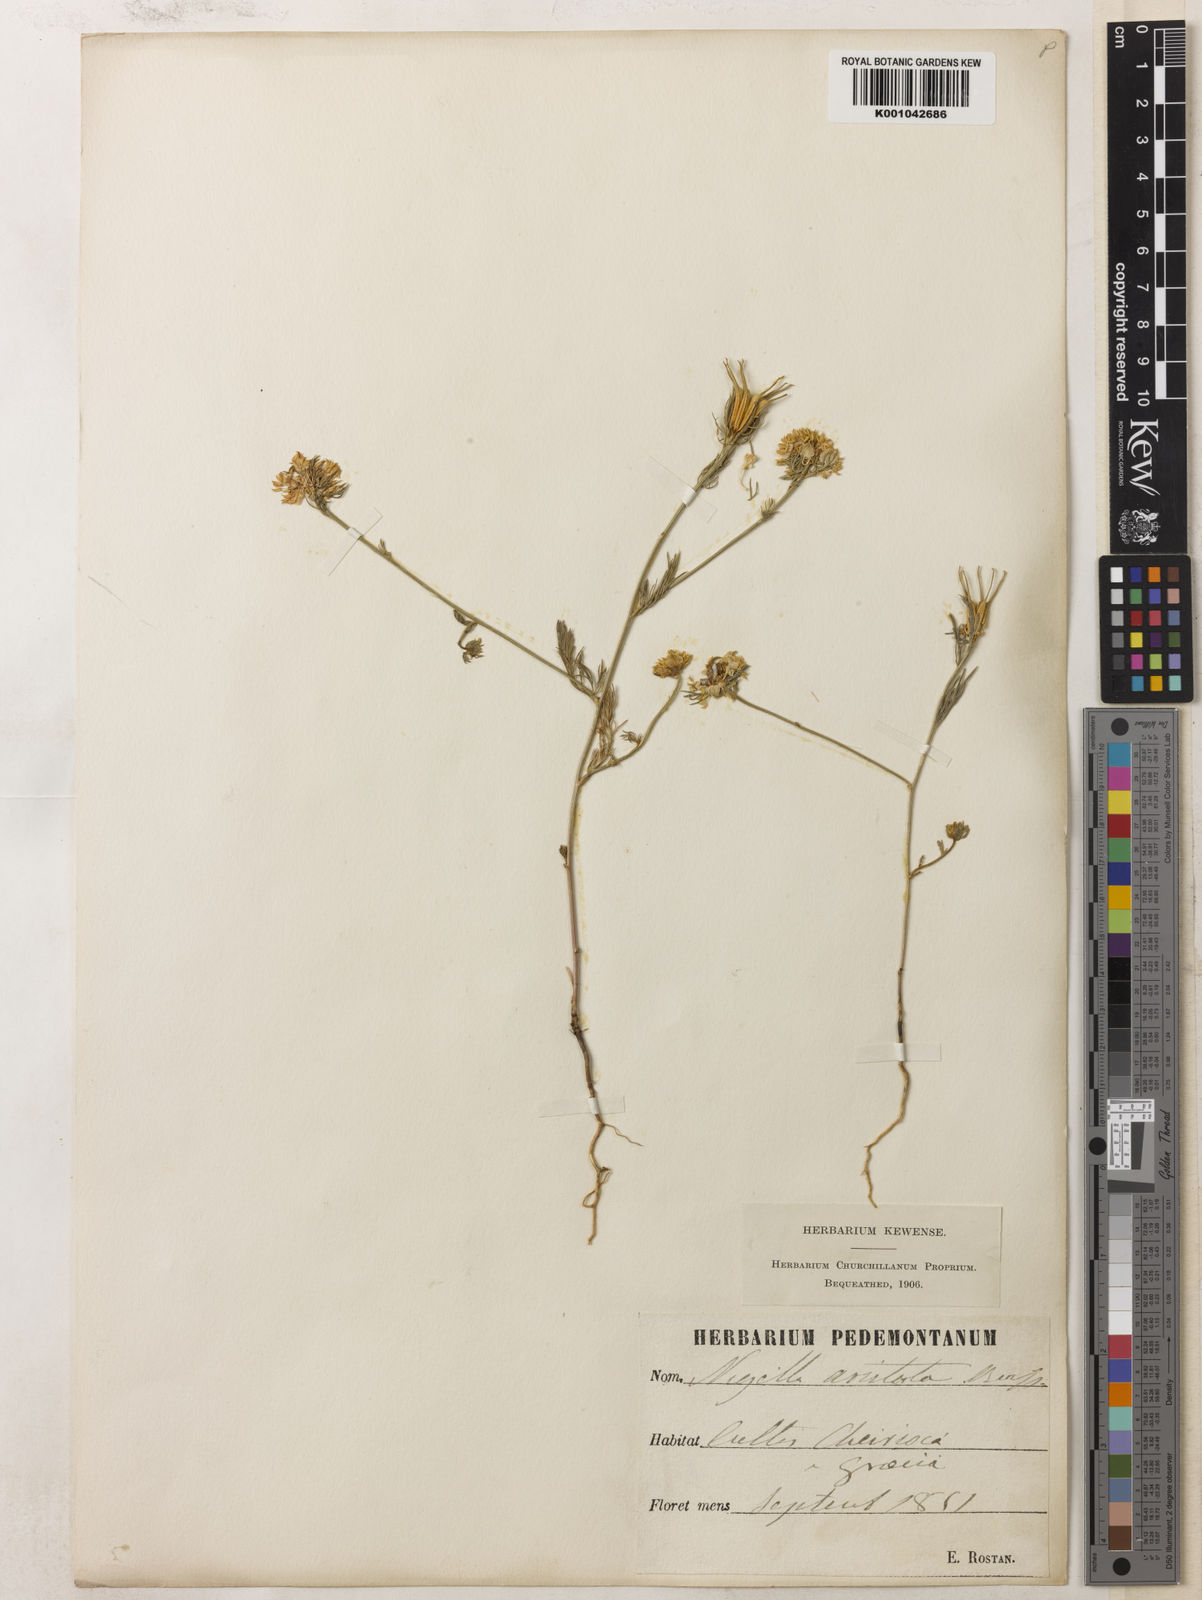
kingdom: Plantae
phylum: Tracheophyta
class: Magnoliopsida
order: Ranunculales
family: Ranunculaceae
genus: Nigella
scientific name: Nigella arvensis
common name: Wild fennel-flower
